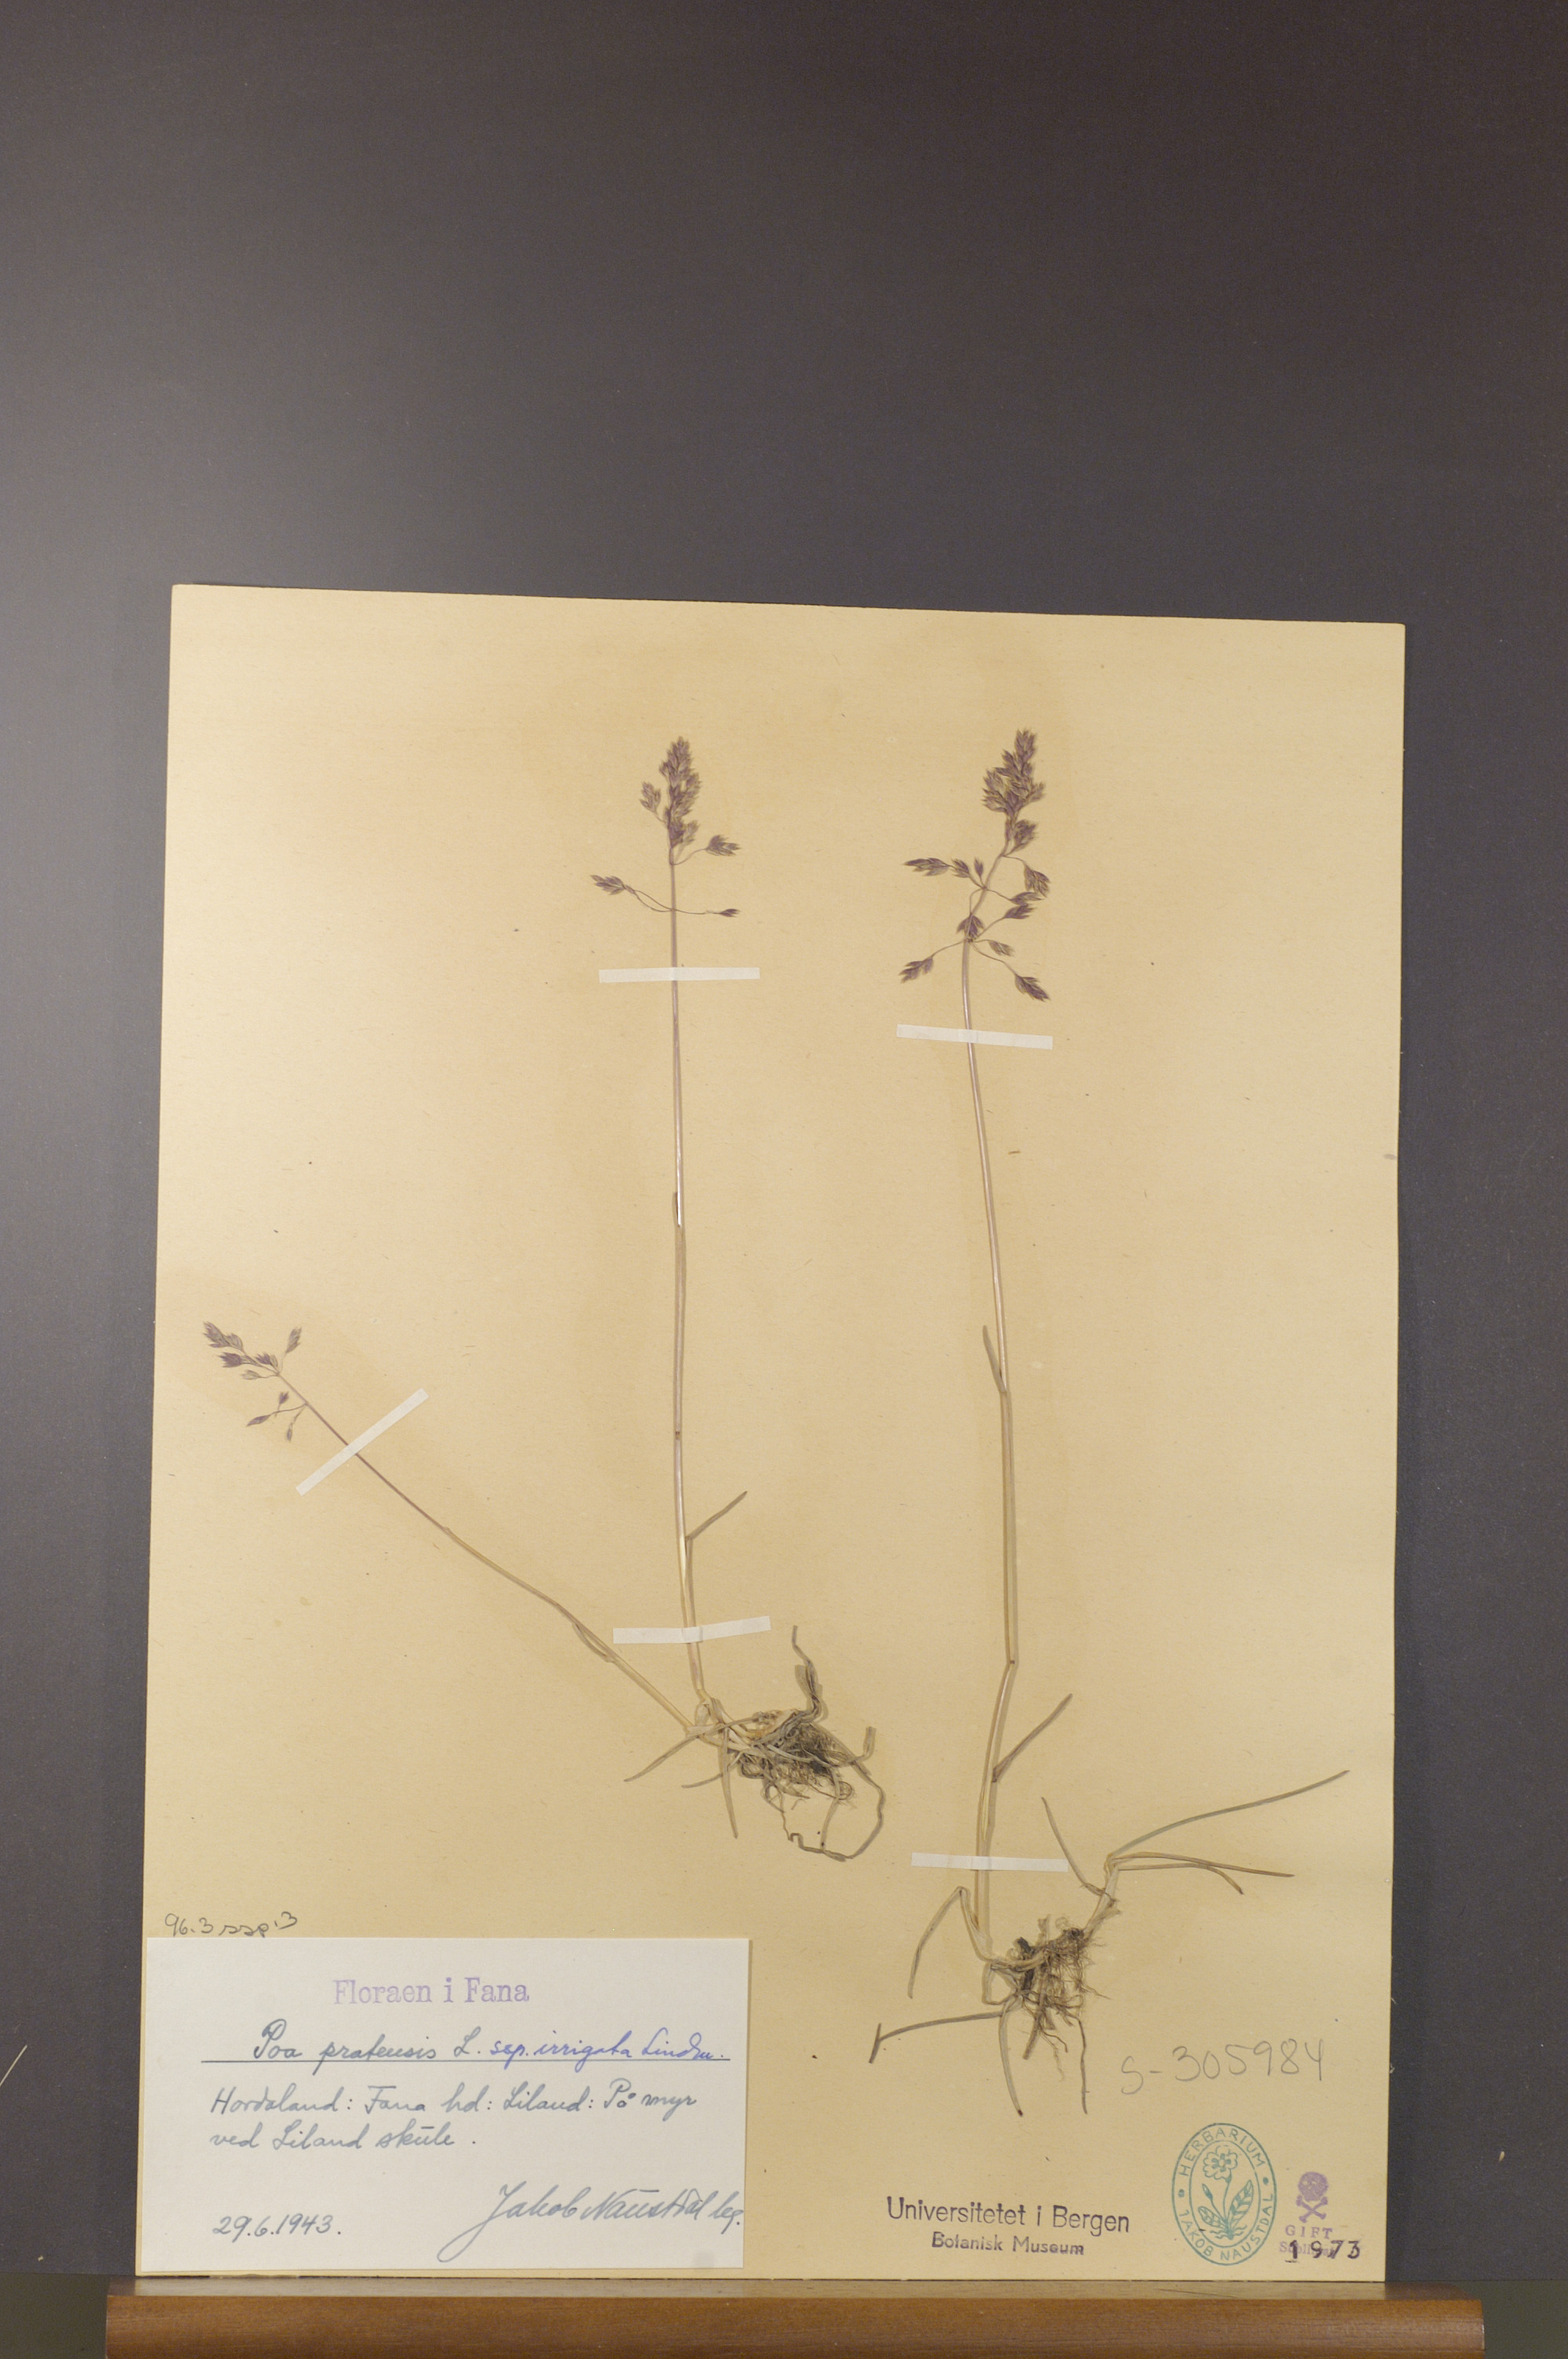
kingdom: Plantae
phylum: Tracheophyta
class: Liliopsida
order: Poales
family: Poaceae
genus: Poa
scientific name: Poa humilis
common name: Spreading meadow-grass
